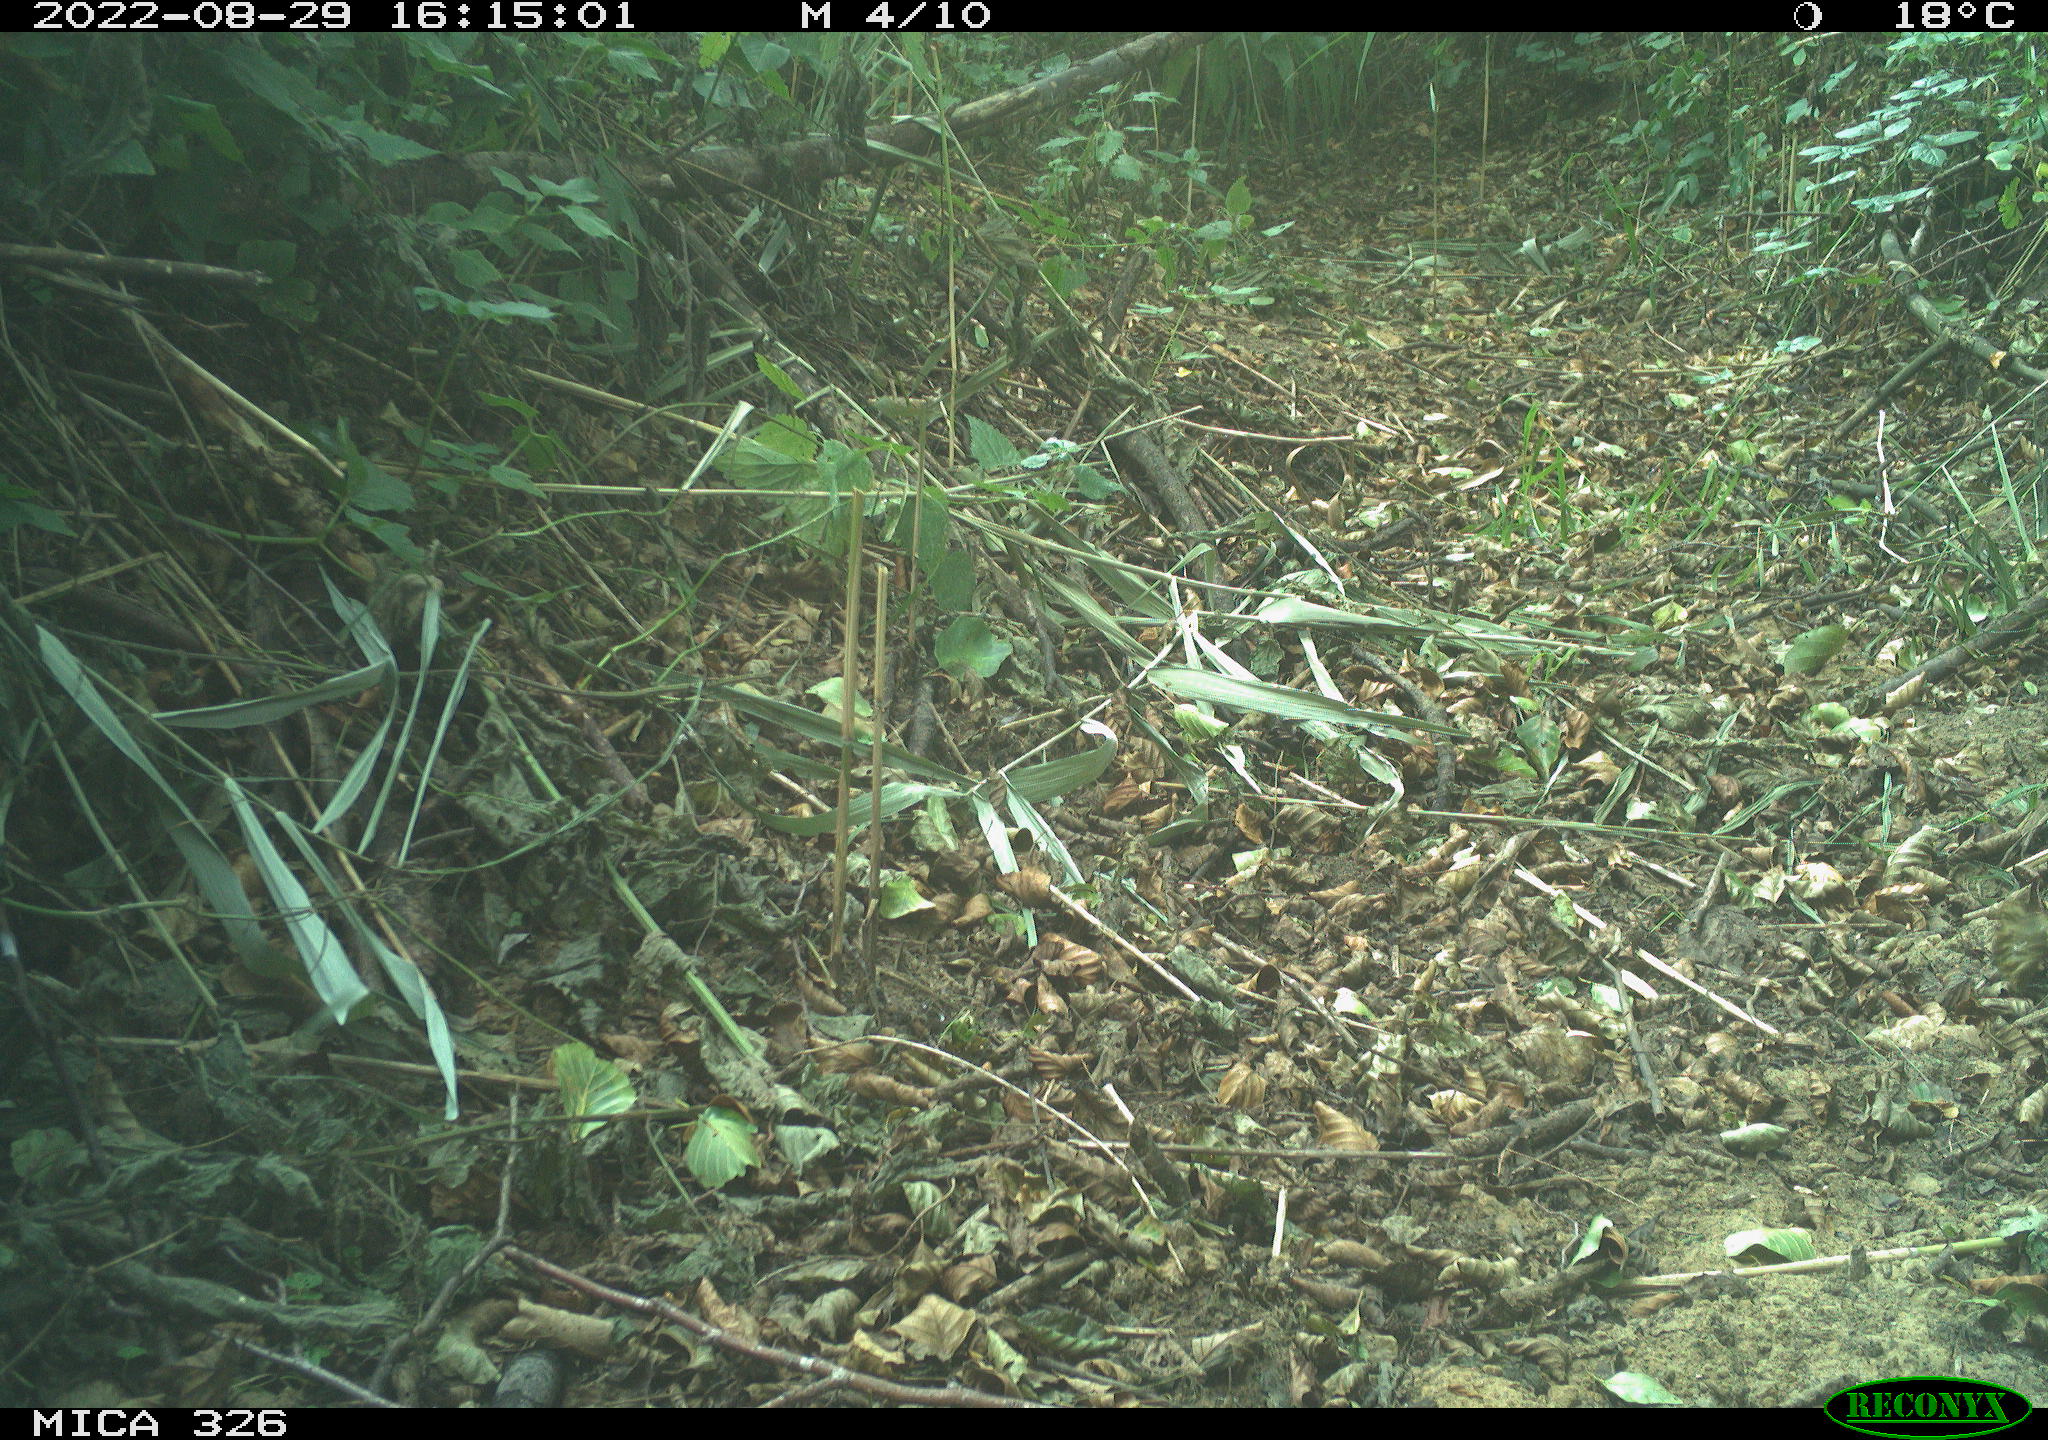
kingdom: Animalia
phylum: Chordata
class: Aves
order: Columbiformes
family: Columbidae
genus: Columba
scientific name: Columba palumbus
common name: Common wood pigeon
